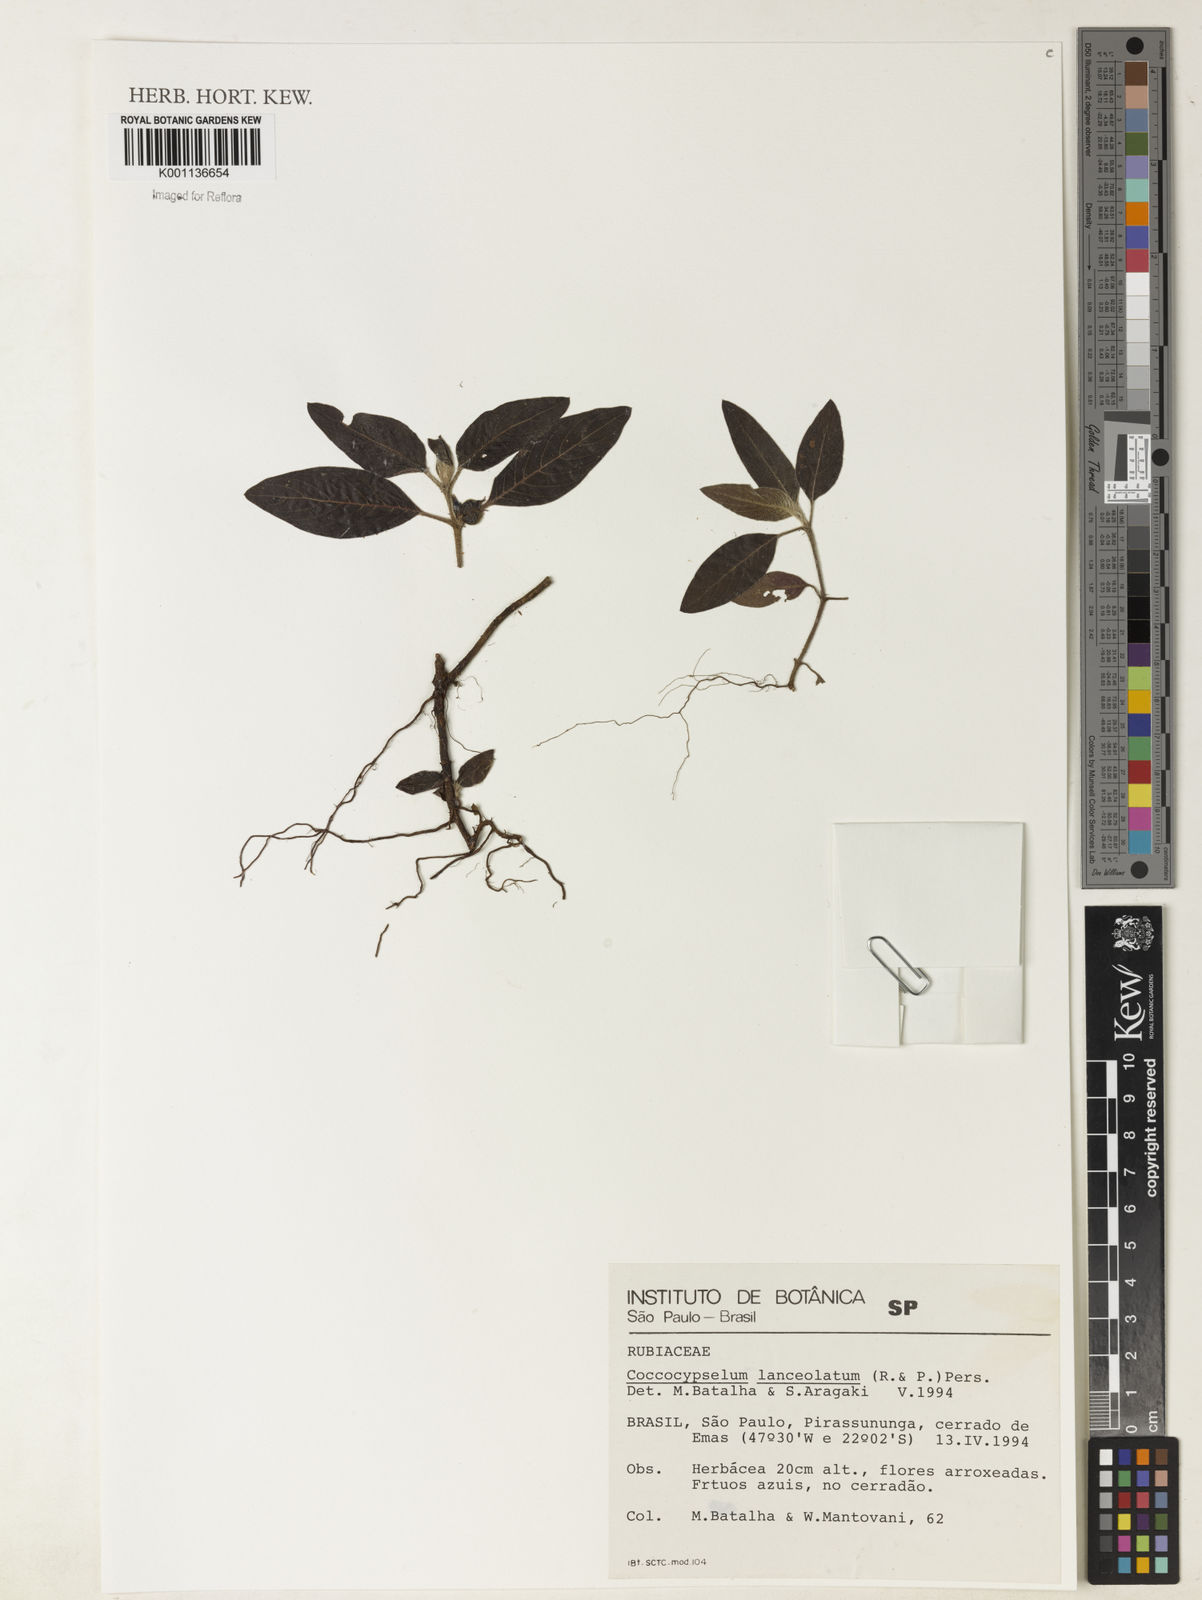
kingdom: Plantae
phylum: Tracheophyta
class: Magnoliopsida
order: Gentianales
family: Rubiaceae
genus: Coccocypselum
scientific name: Coccocypselum lanceolatum
